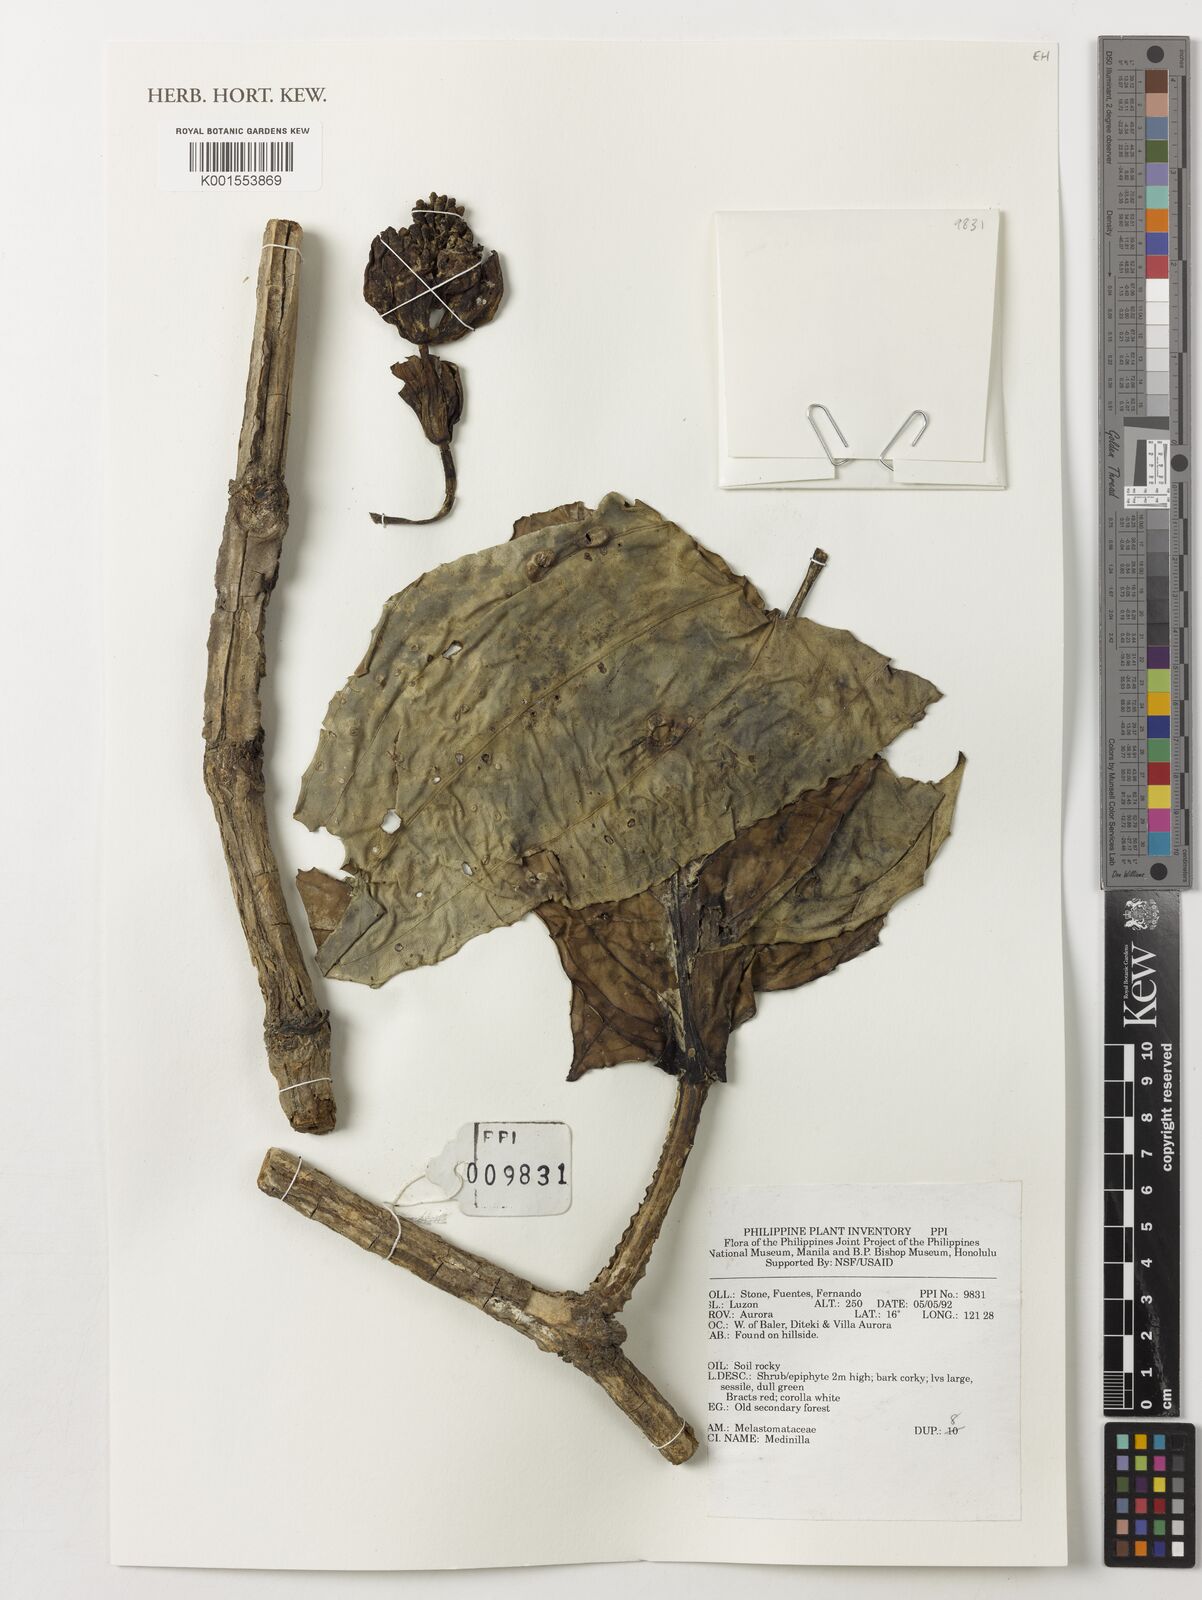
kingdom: Plantae
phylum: Tracheophyta
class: Magnoliopsida
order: Myrtales
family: Melastomataceae
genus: Medinilla
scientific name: Medinilla
